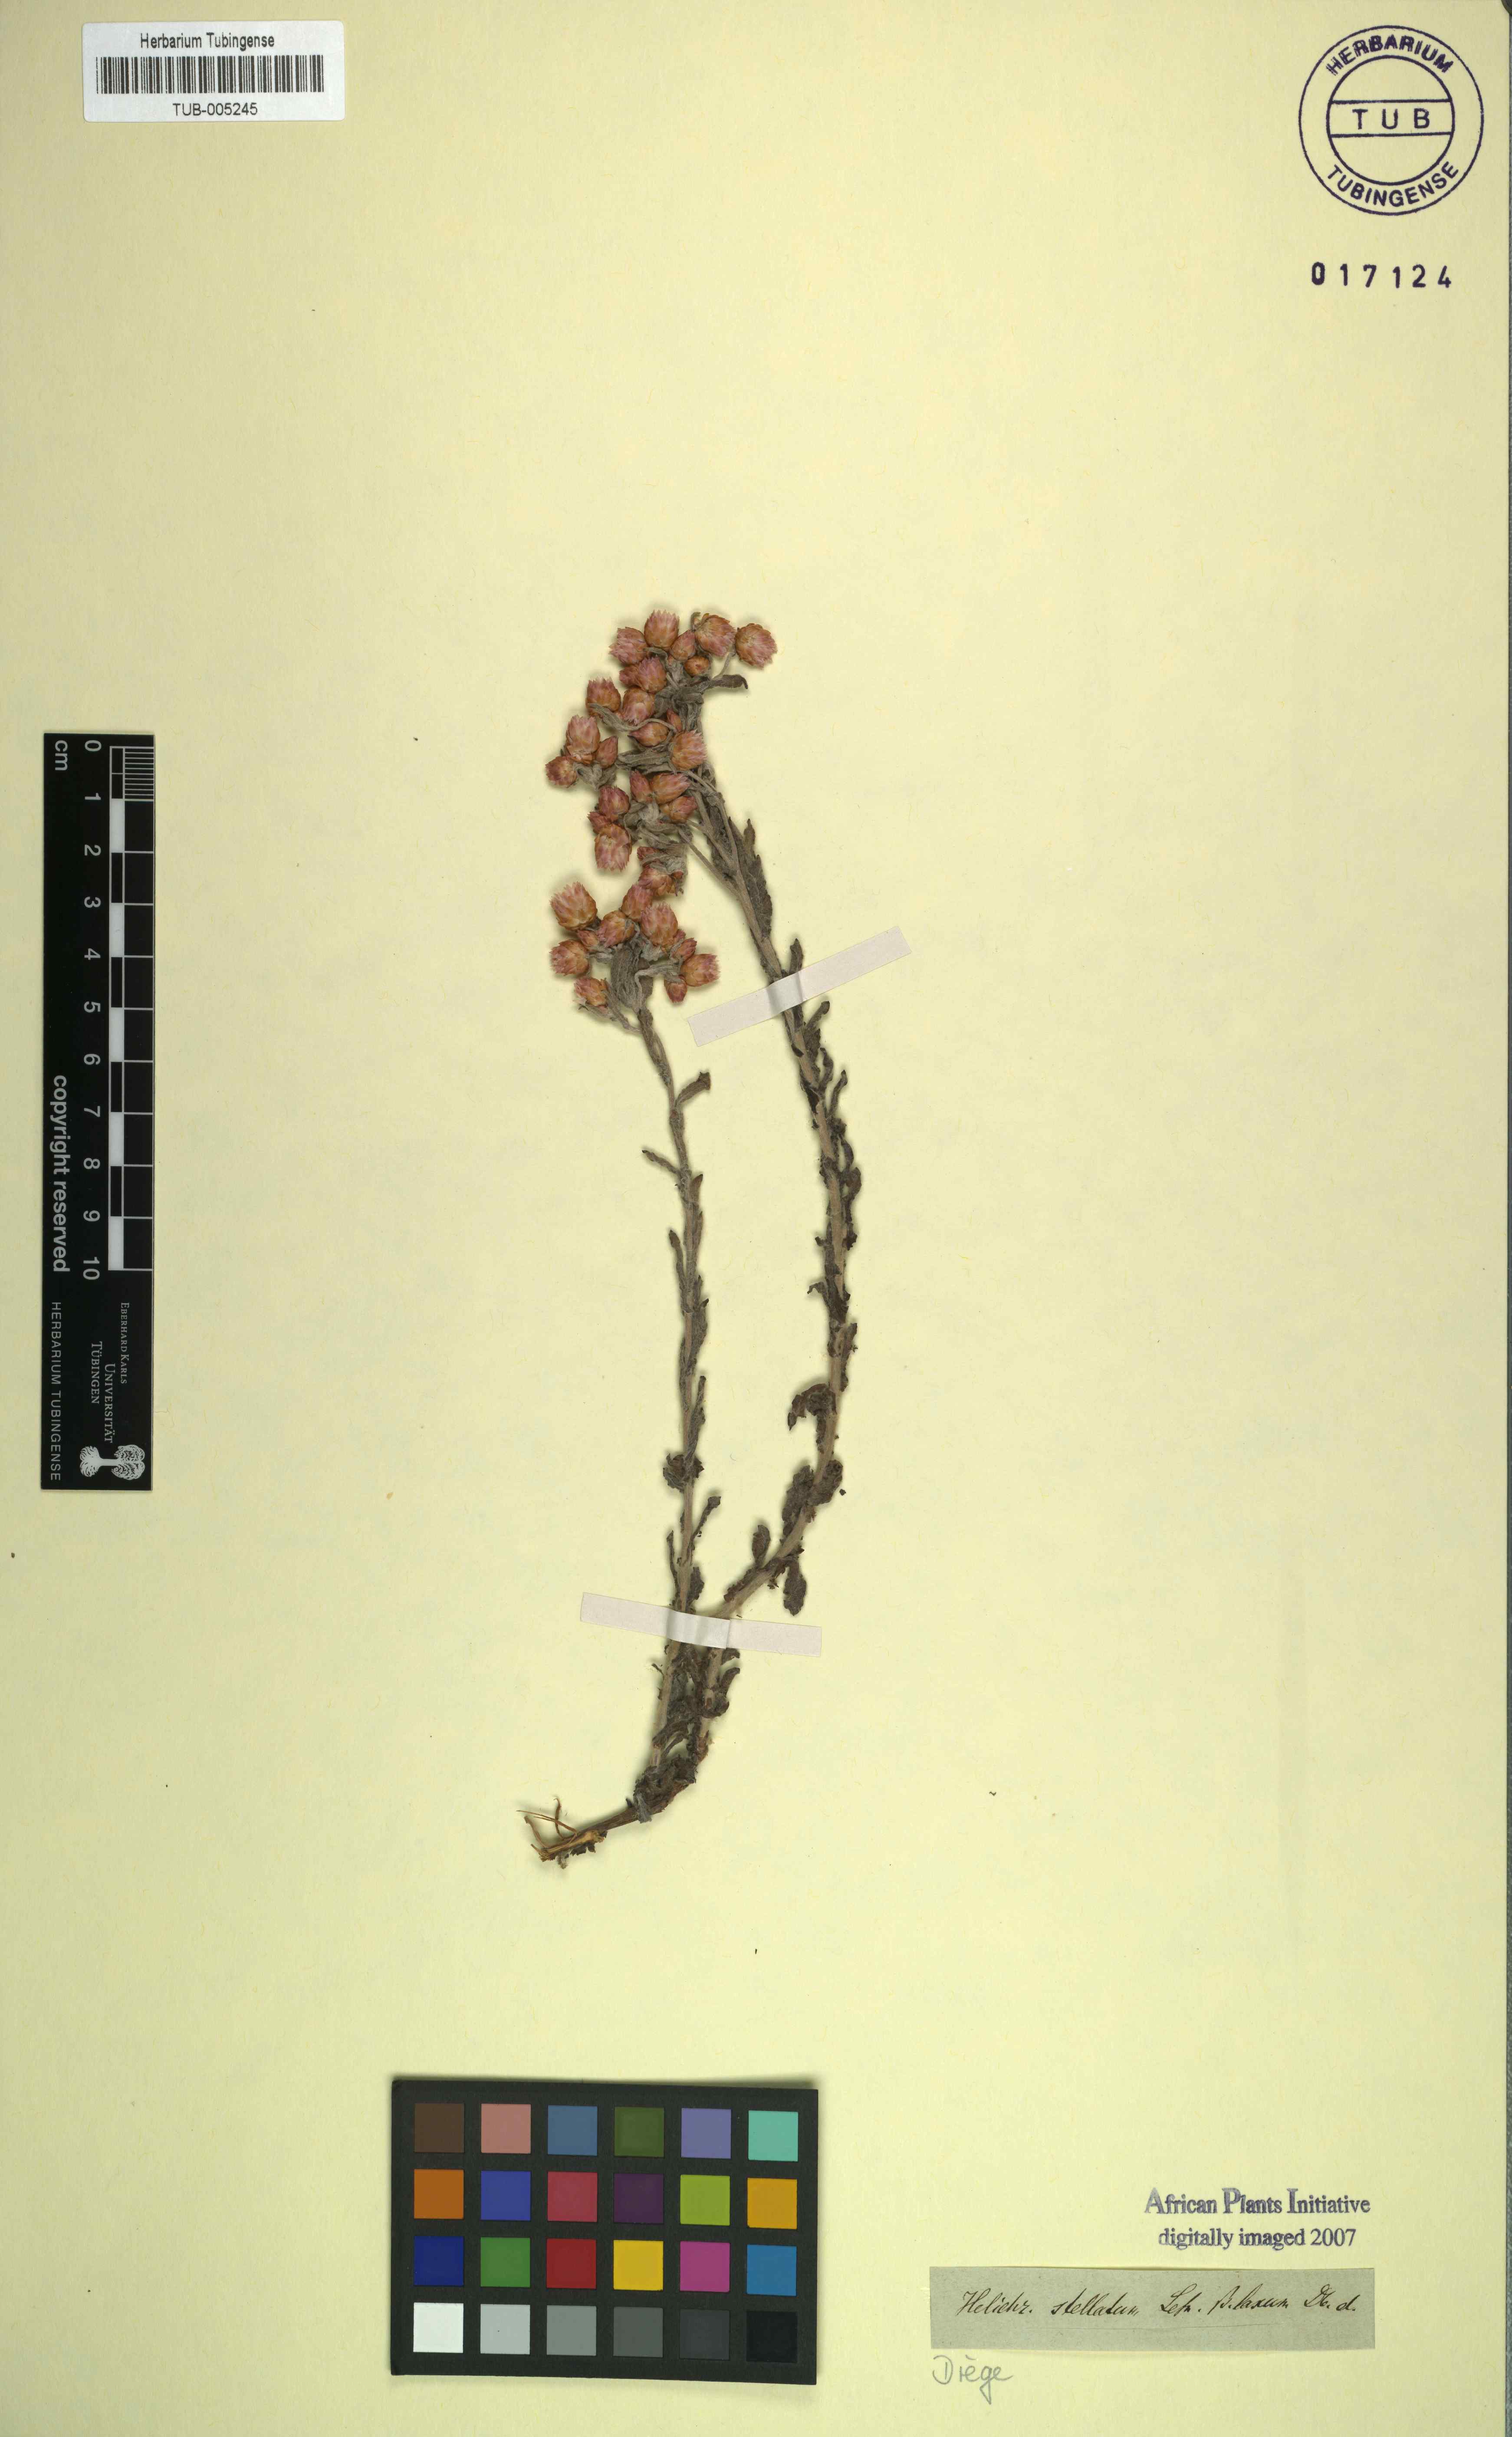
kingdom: Plantae
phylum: Tracheophyta
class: Magnoliopsida
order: Asterales
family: Asteraceae
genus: Helichrysum
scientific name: Helichrysum stellatum
